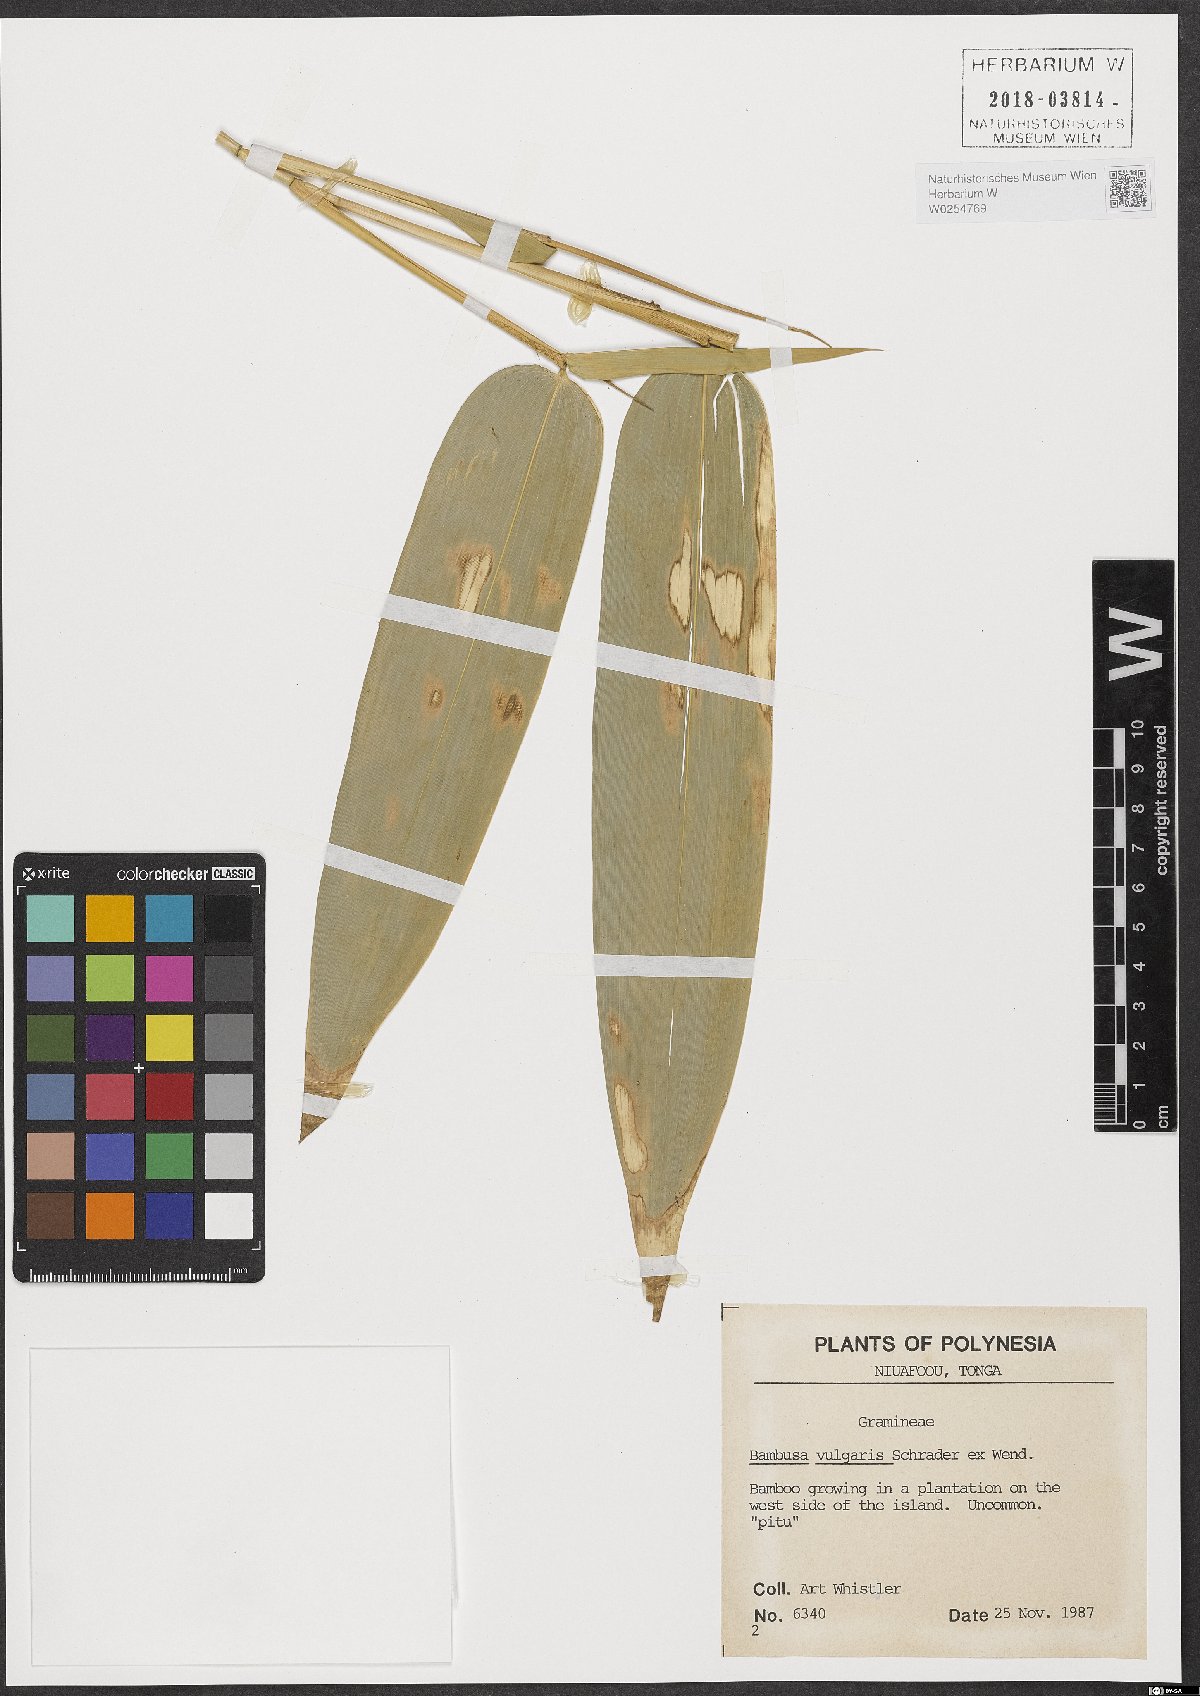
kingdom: Plantae
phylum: Tracheophyta
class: Liliopsida
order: Poales
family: Poaceae
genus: Bambusa
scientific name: Bambusa vulgaris
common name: Common bamboo
